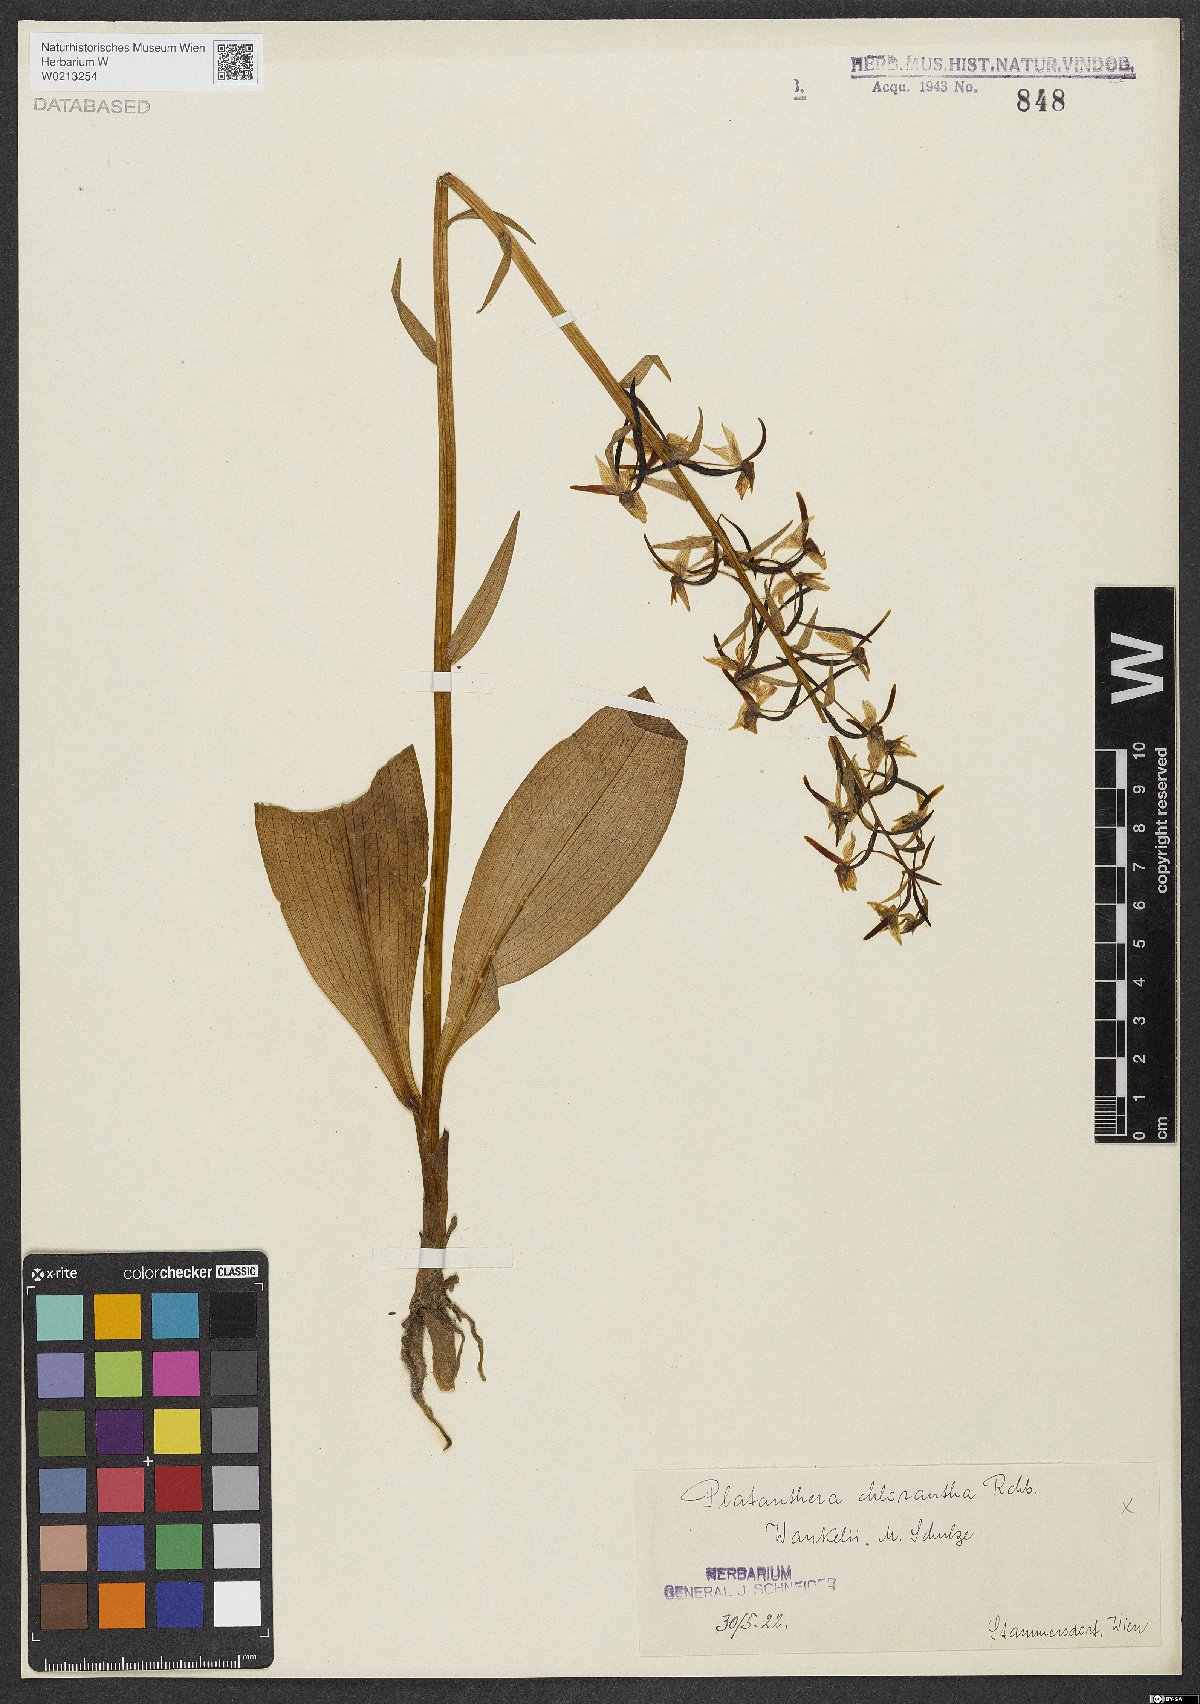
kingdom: Plantae
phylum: Tracheophyta
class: Liliopsida
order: Asparagales
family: Orchidaceae
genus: Platanthera
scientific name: Platanthera chlorantha
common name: Greater butterfly-orchid
